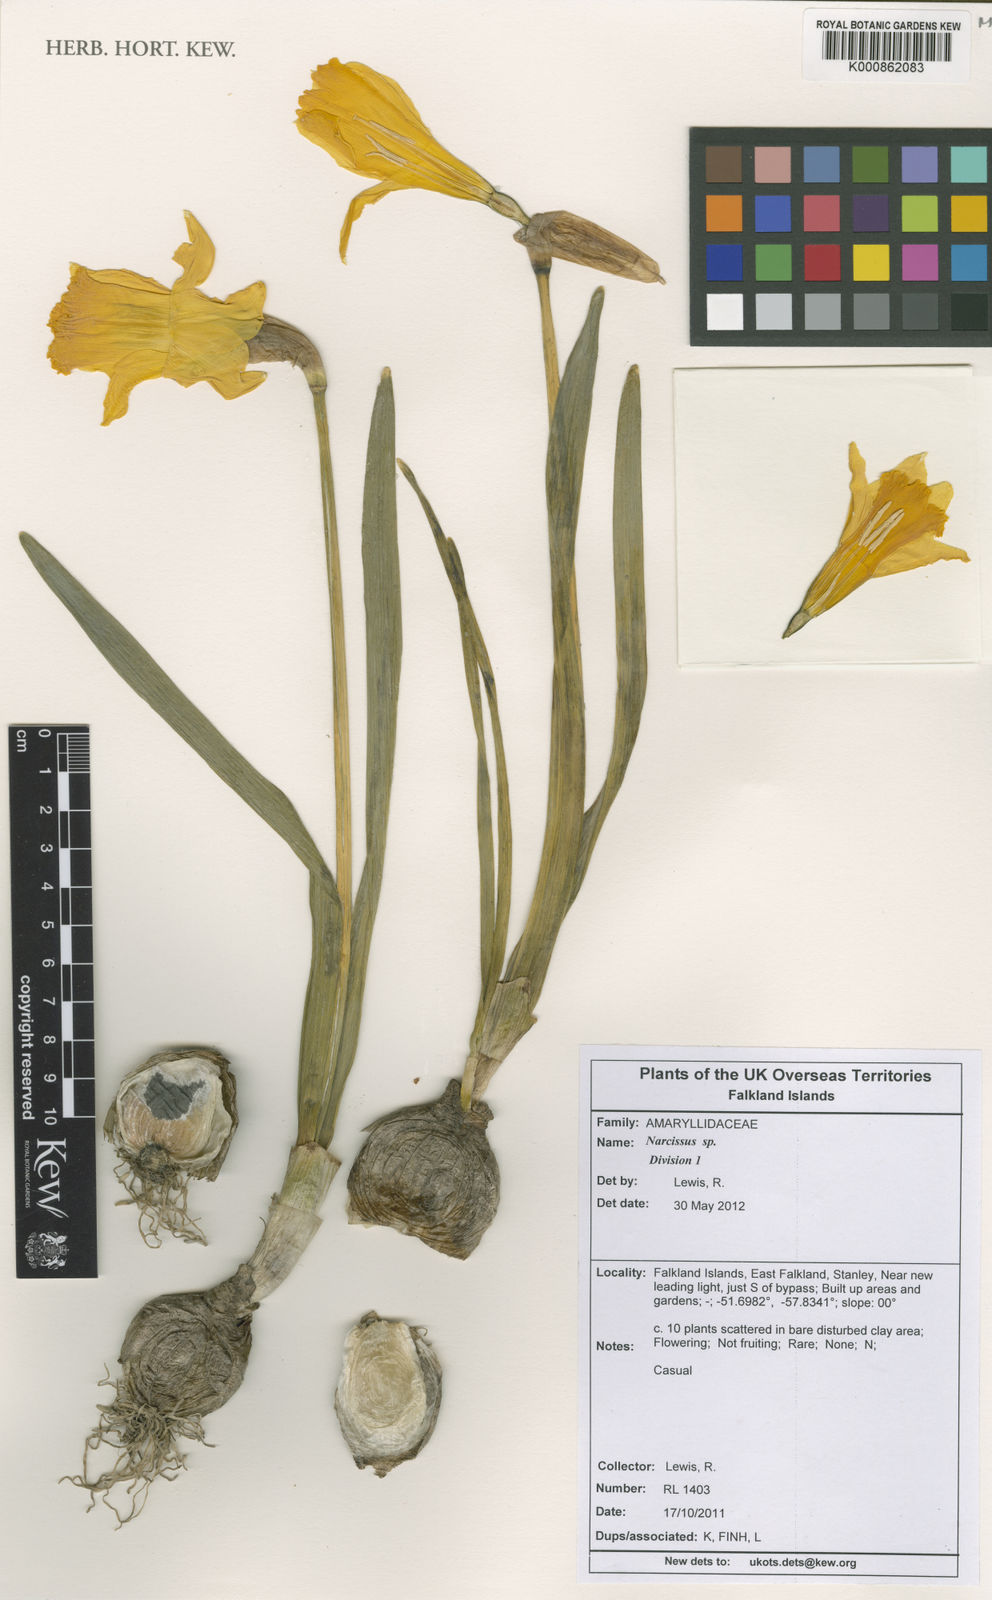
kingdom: Plantae
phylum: Tracheophyta
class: Liliopsida
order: Asparagales
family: Amaryllidaceae
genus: Narcissus
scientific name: Narcissus
